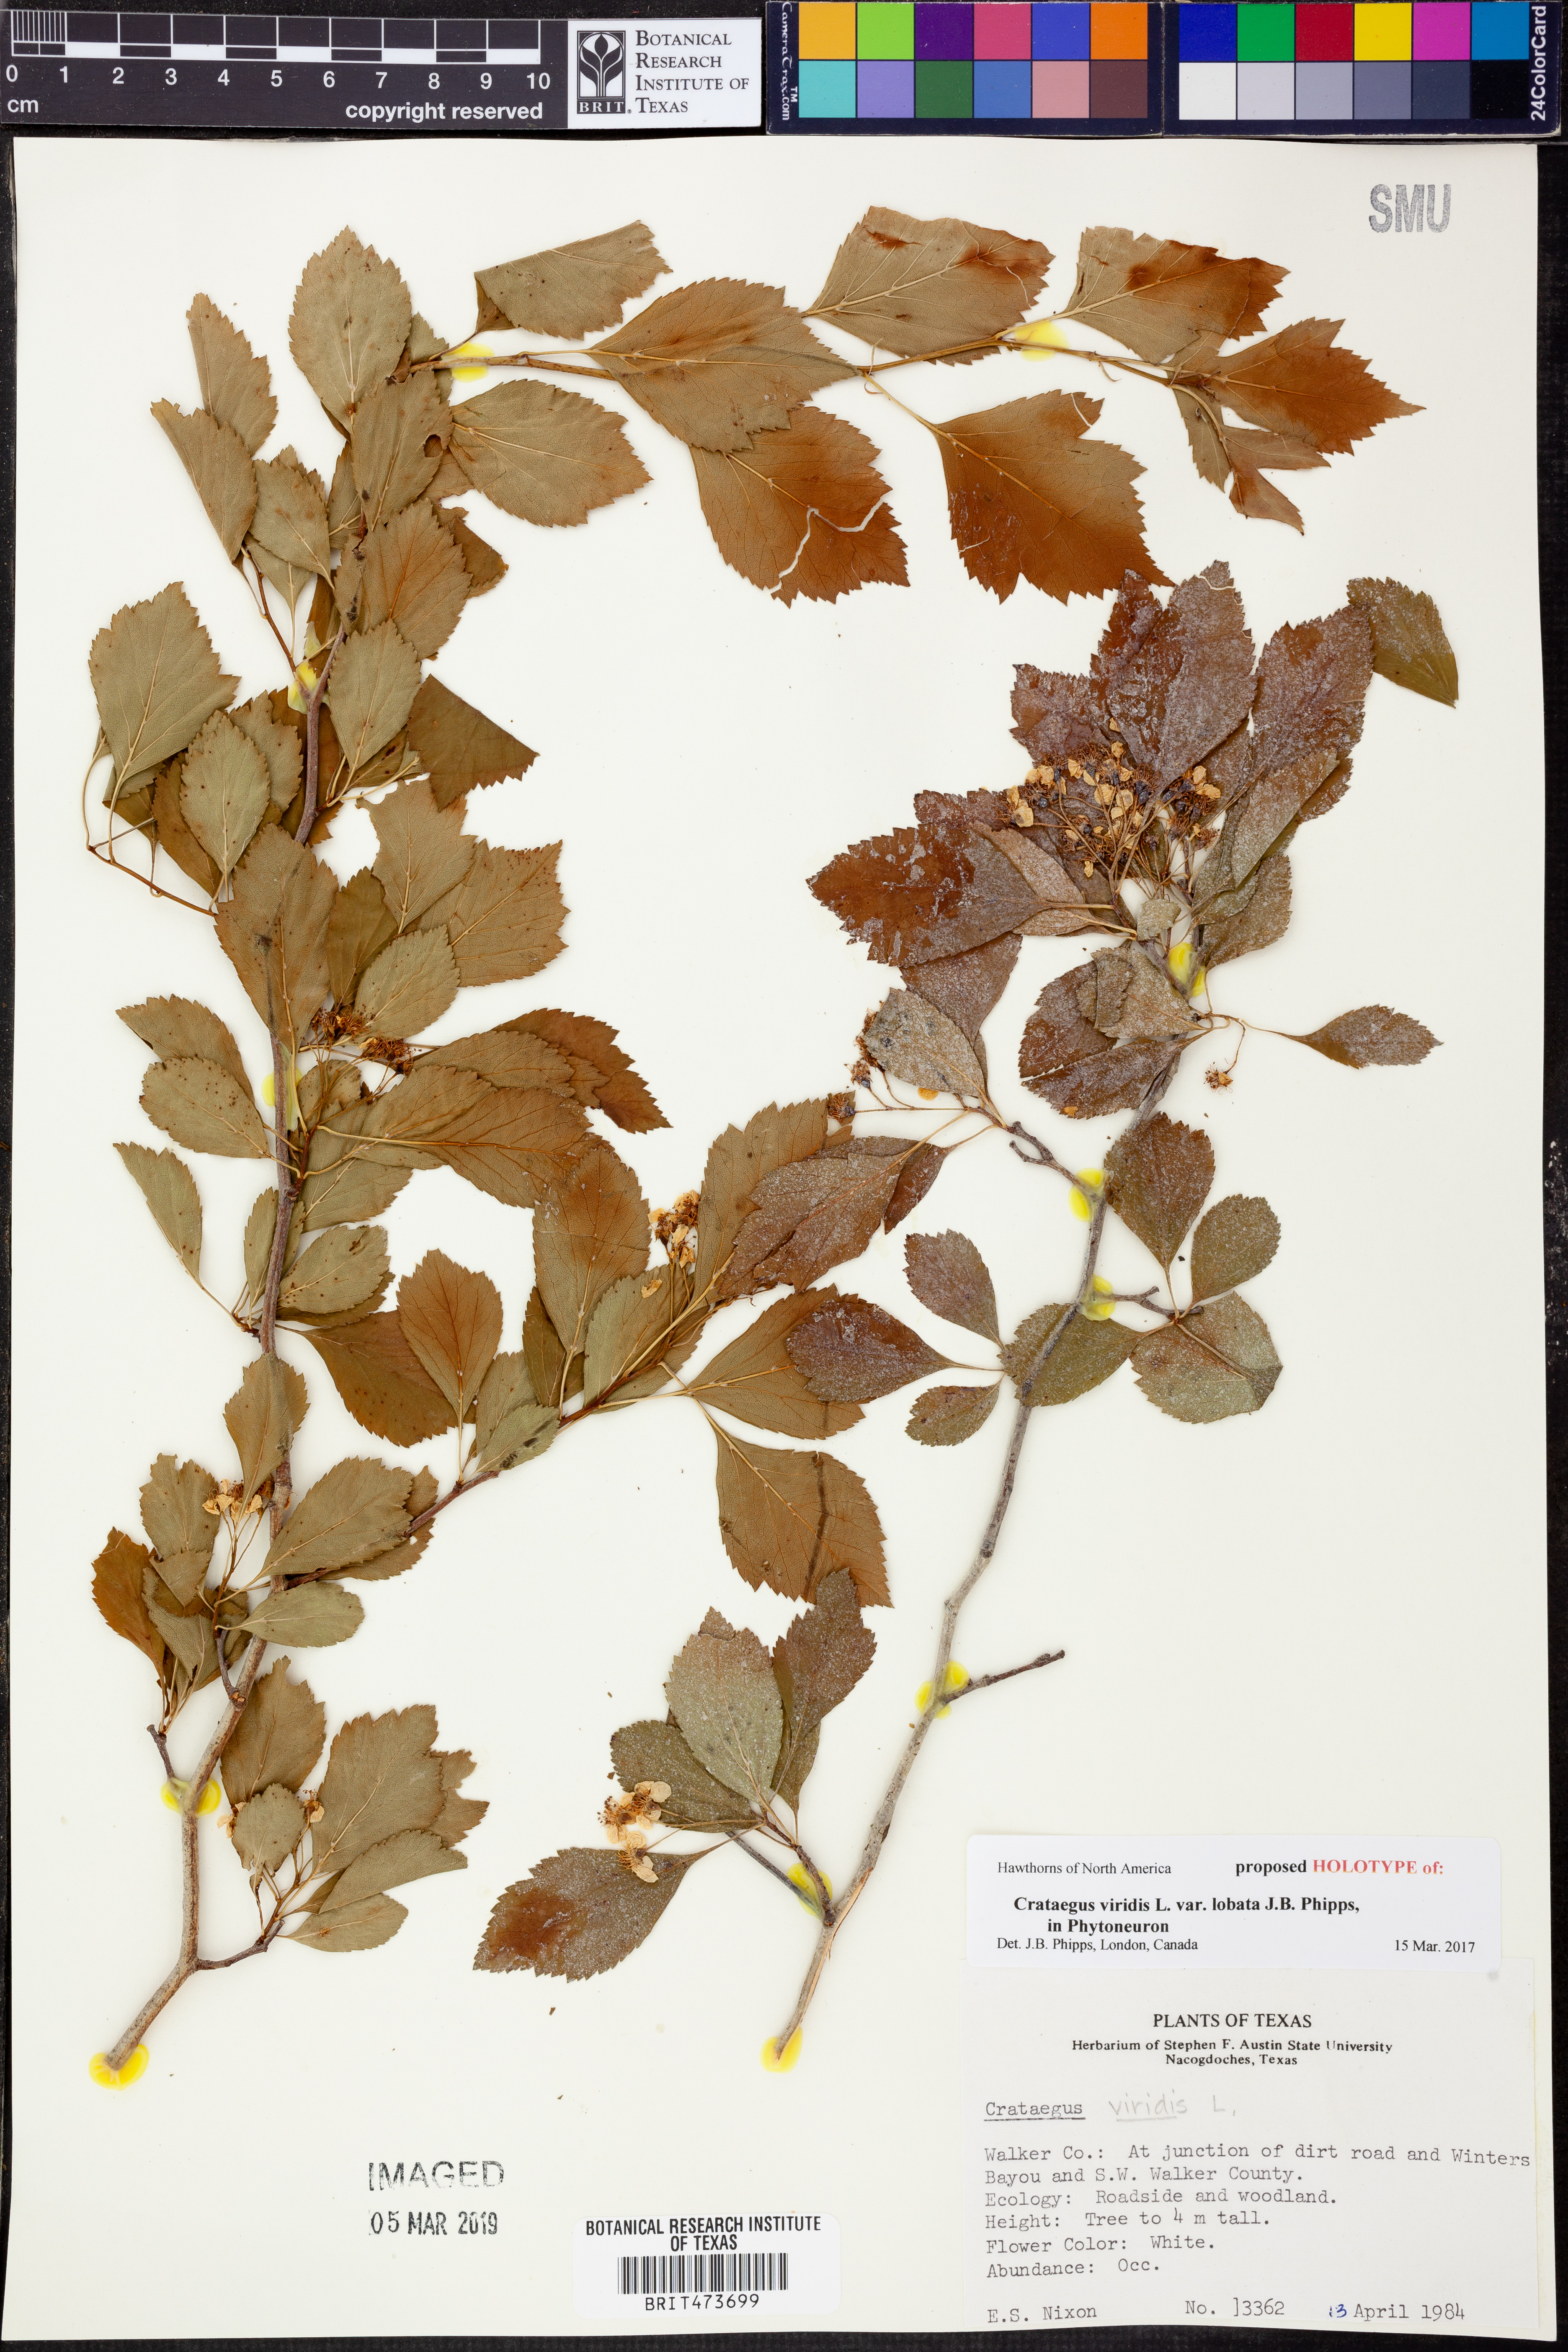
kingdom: Plantae
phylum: Tracheophyta
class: Magnoliopsida
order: Rosales
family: Rosaceae
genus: Crataegus
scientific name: Crataegus viridis
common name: Southernthorn
